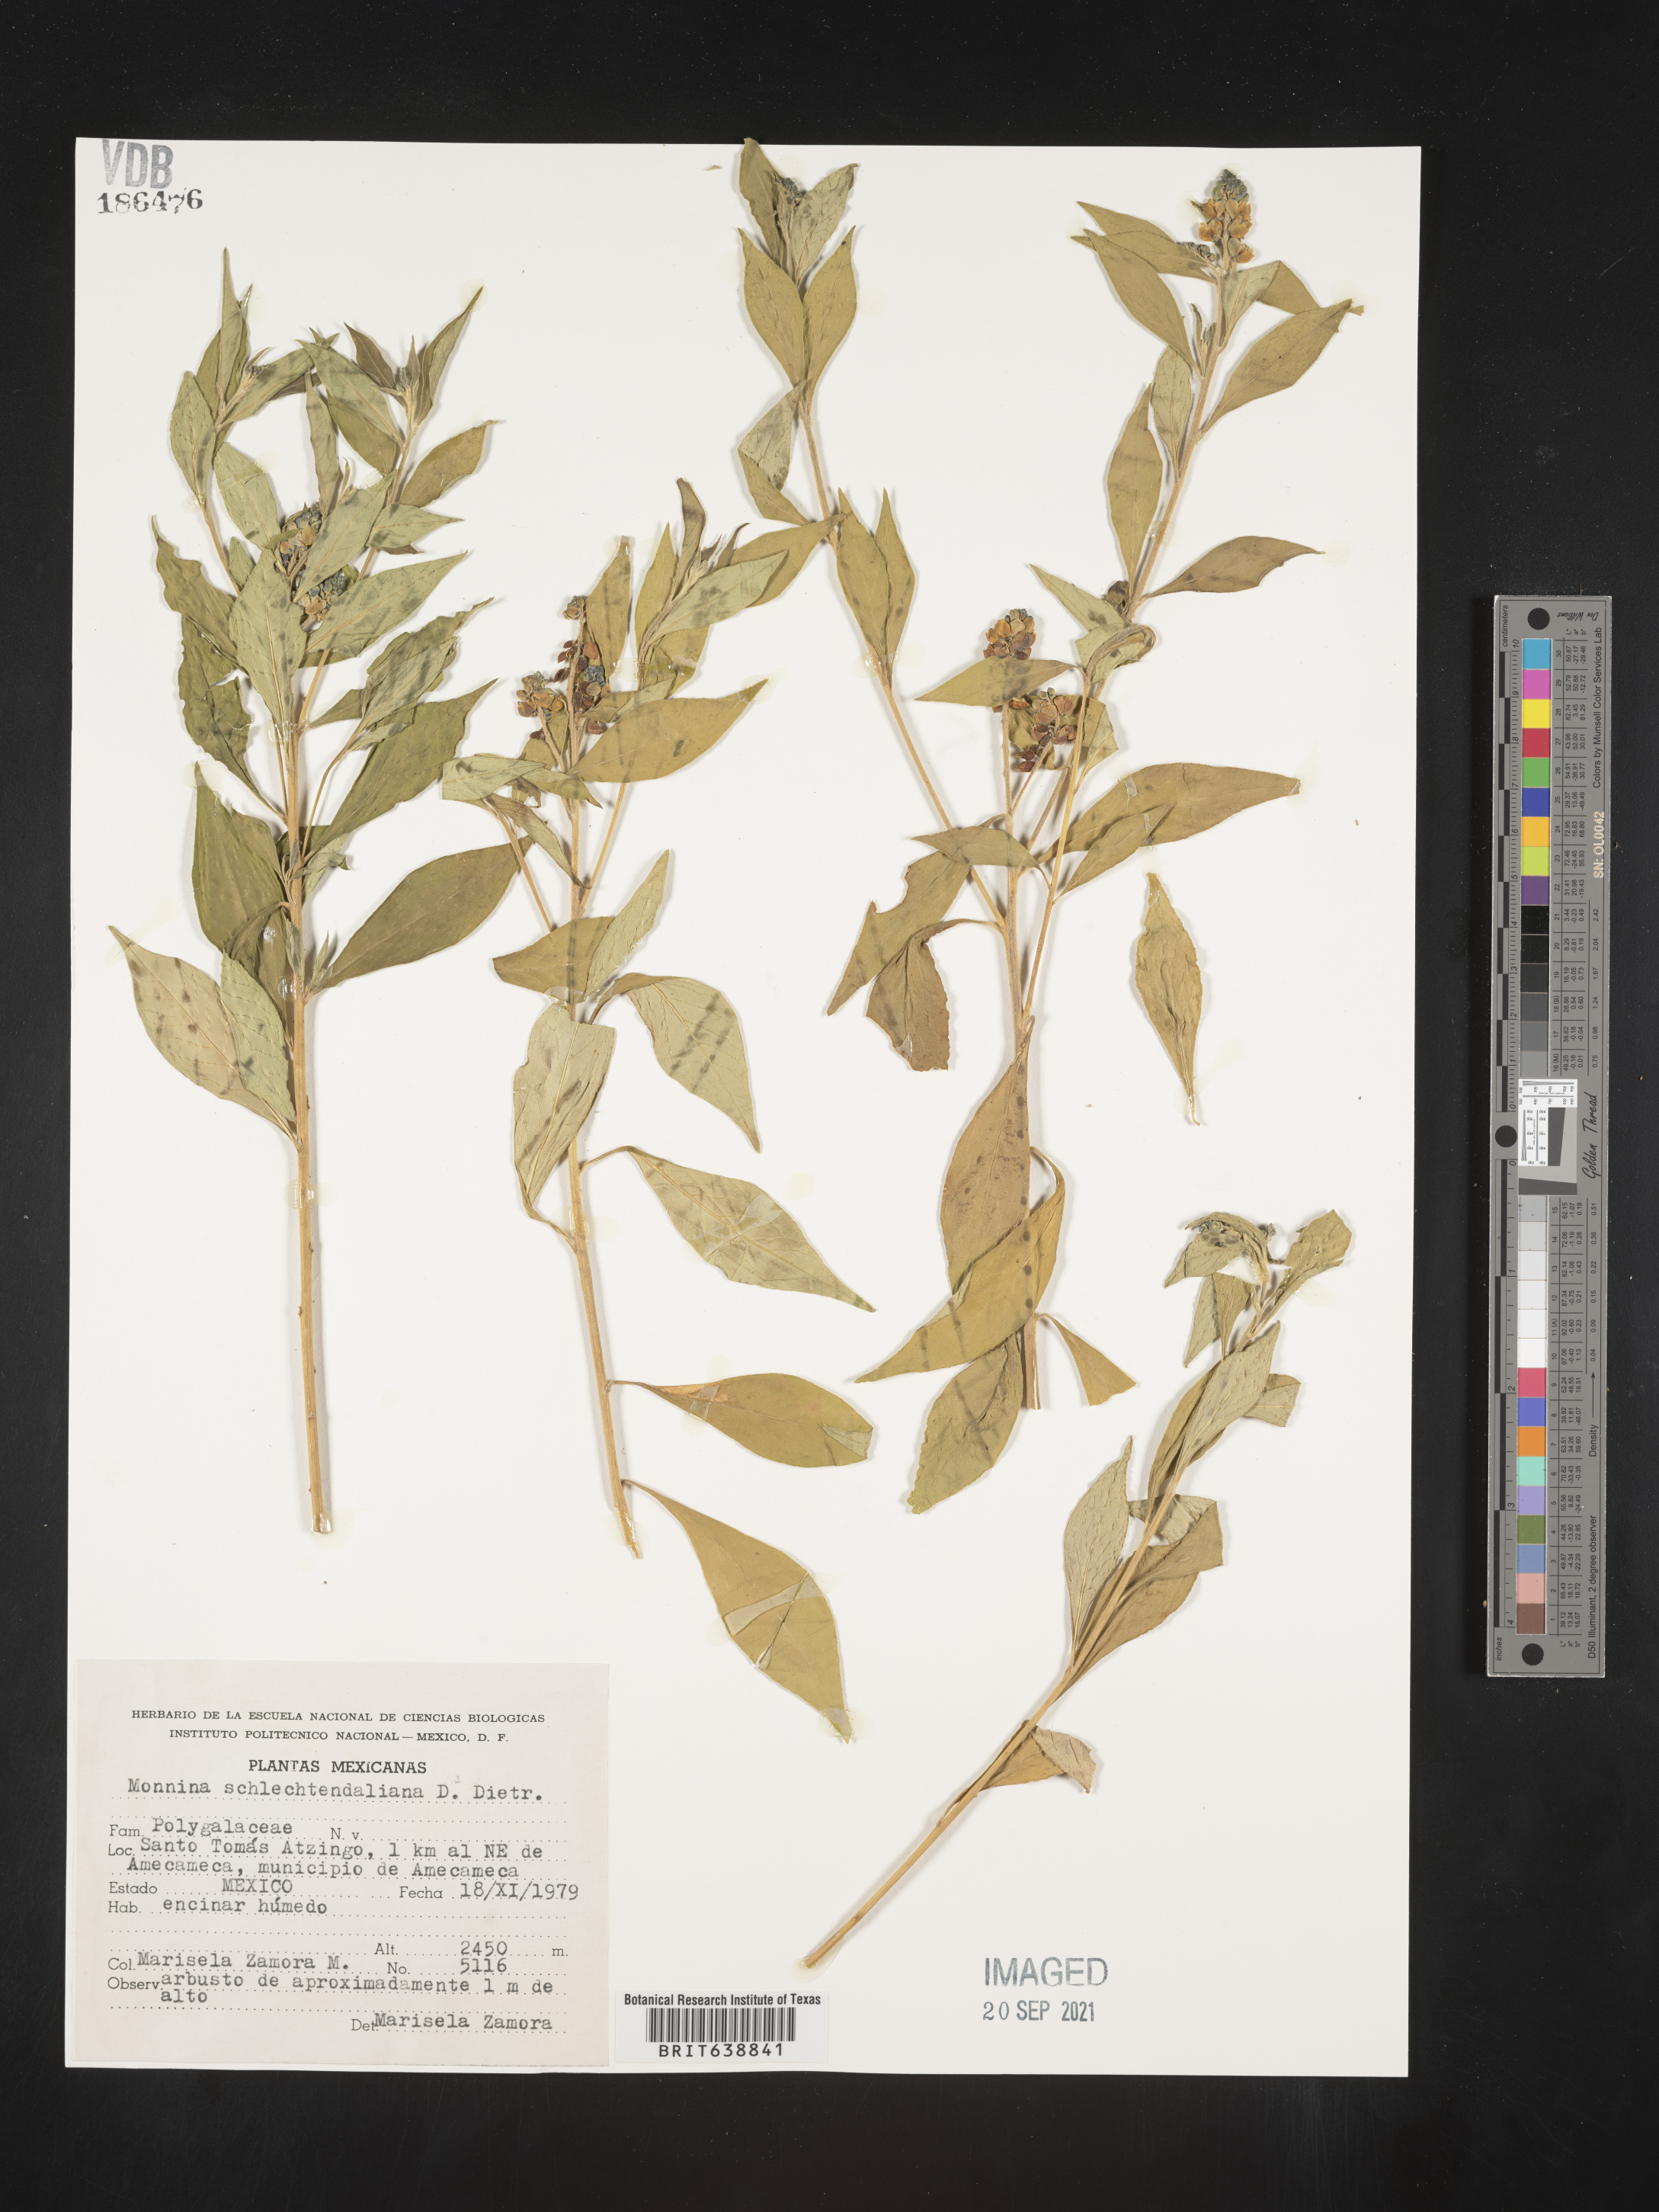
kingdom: Plantae
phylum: Tracheophyta
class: Magnoliopsida
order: Fabales
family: Polygalaceae
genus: Monnina
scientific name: Monnina
